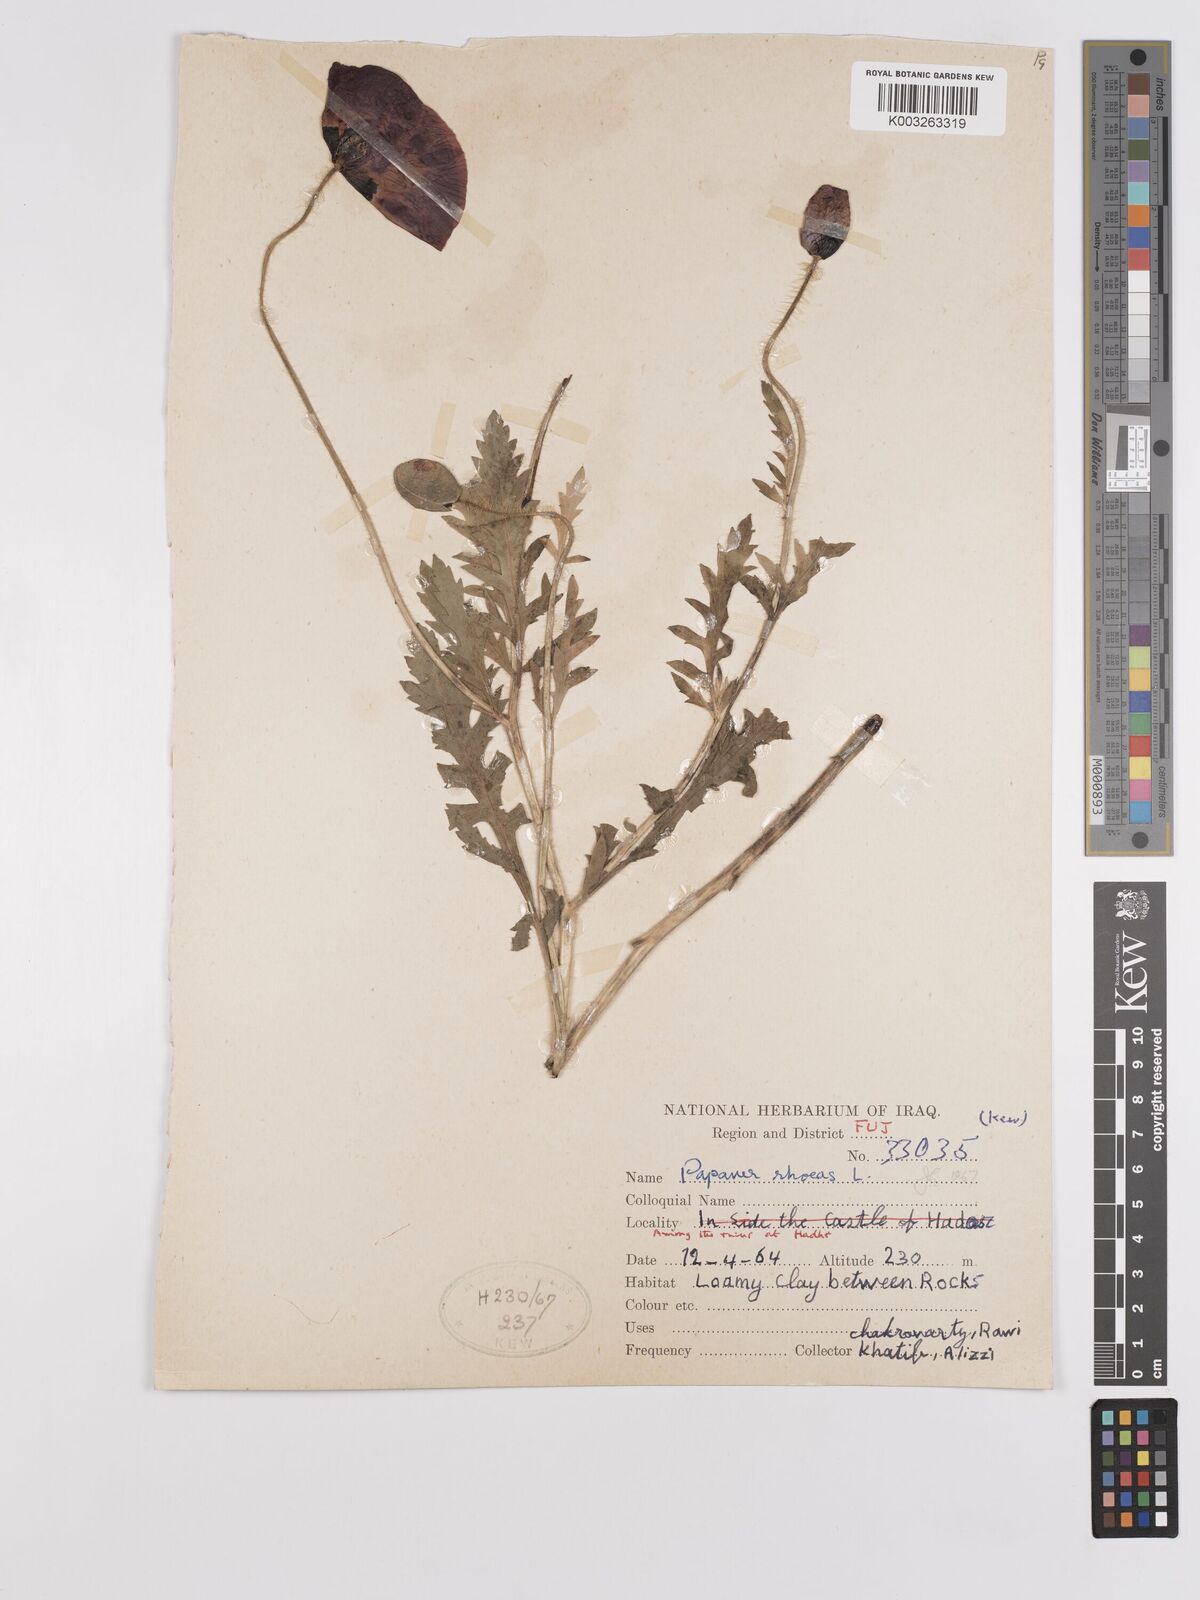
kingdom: Plantae
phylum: Tracheophyta
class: Magnoliopsida
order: Ranunculales
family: Papaveraceae
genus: Papaver
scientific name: Papaver rhoeas
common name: Corn poppy
